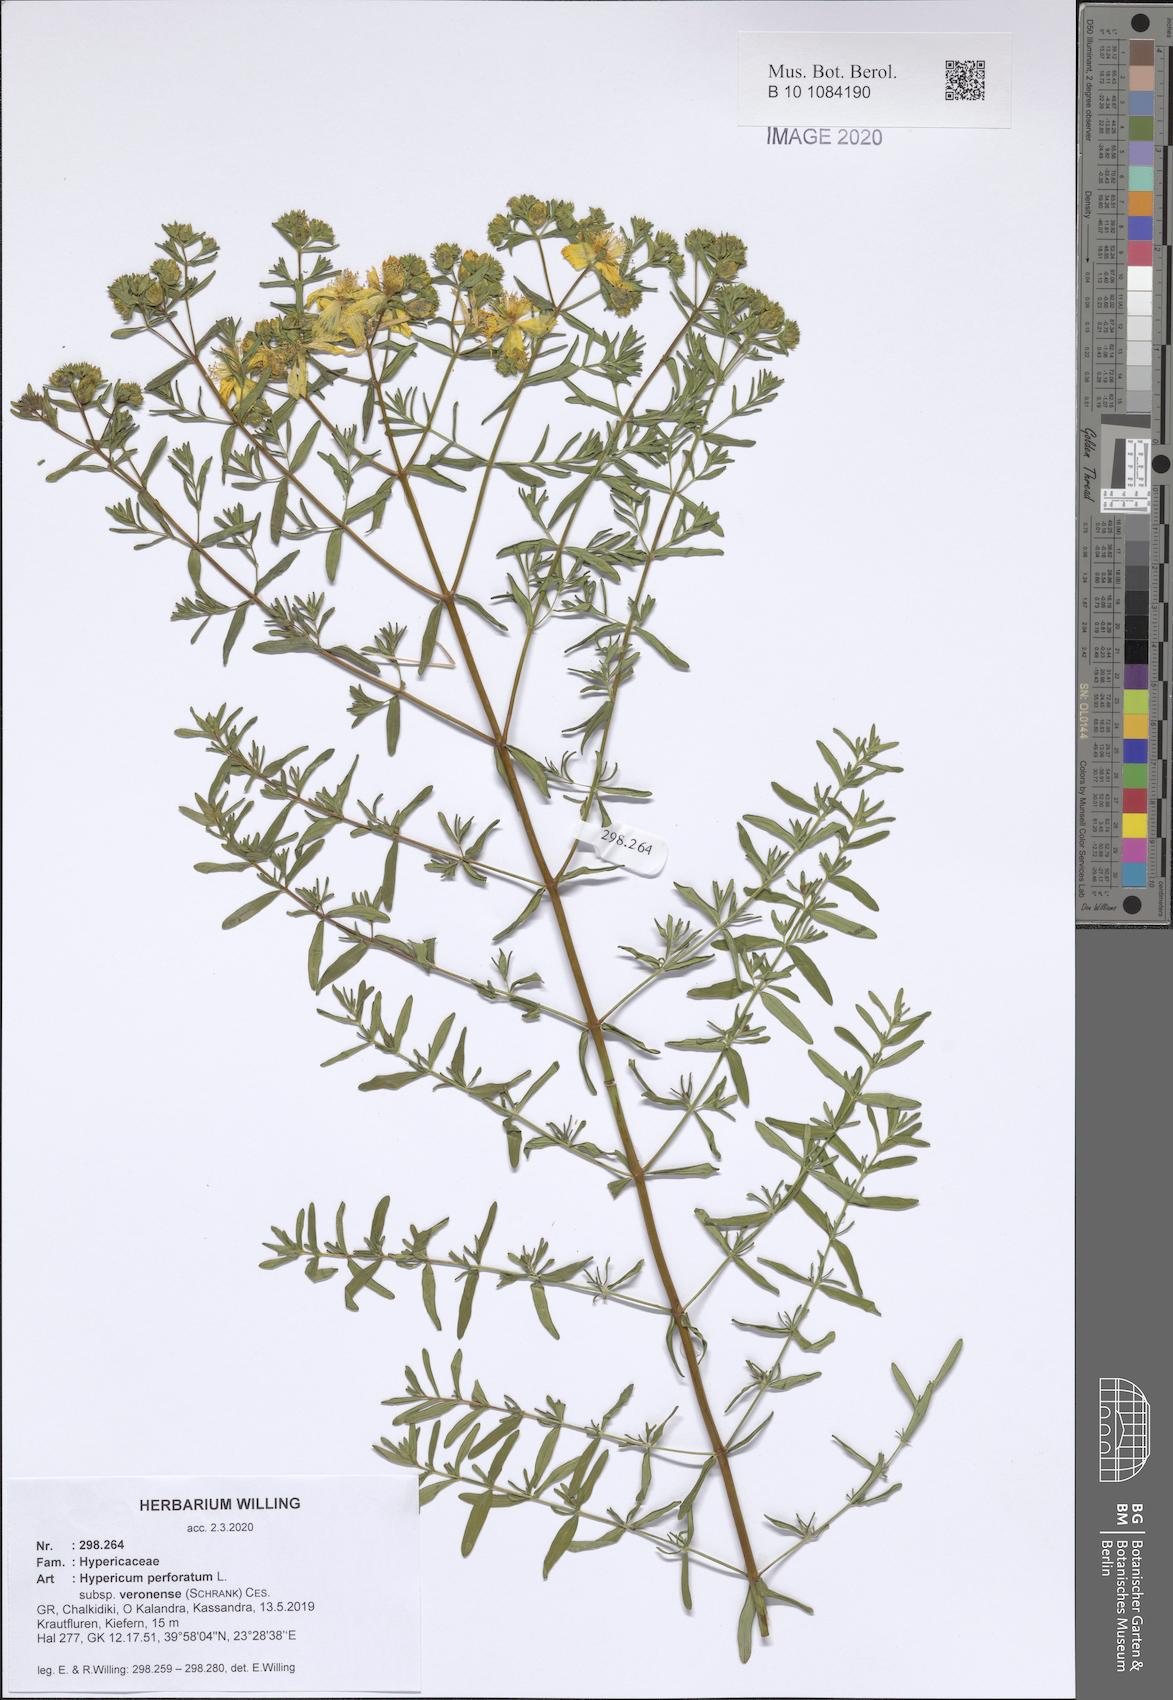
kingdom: Plantae
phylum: Tracheophyta
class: Magnoliopsida
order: Malpighiales
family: Hypericaceae
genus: Hypericum
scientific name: Hypericum veronense
